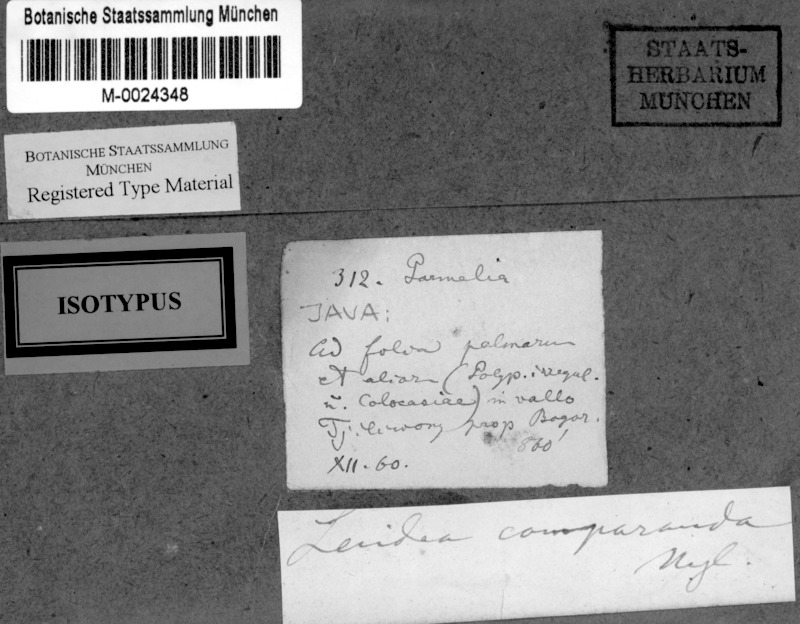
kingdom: Fungi
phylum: Ascomycota
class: Lecanoromycetes
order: Lecanorales
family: Ramalinaceae
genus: Bacidia
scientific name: Bacidia
